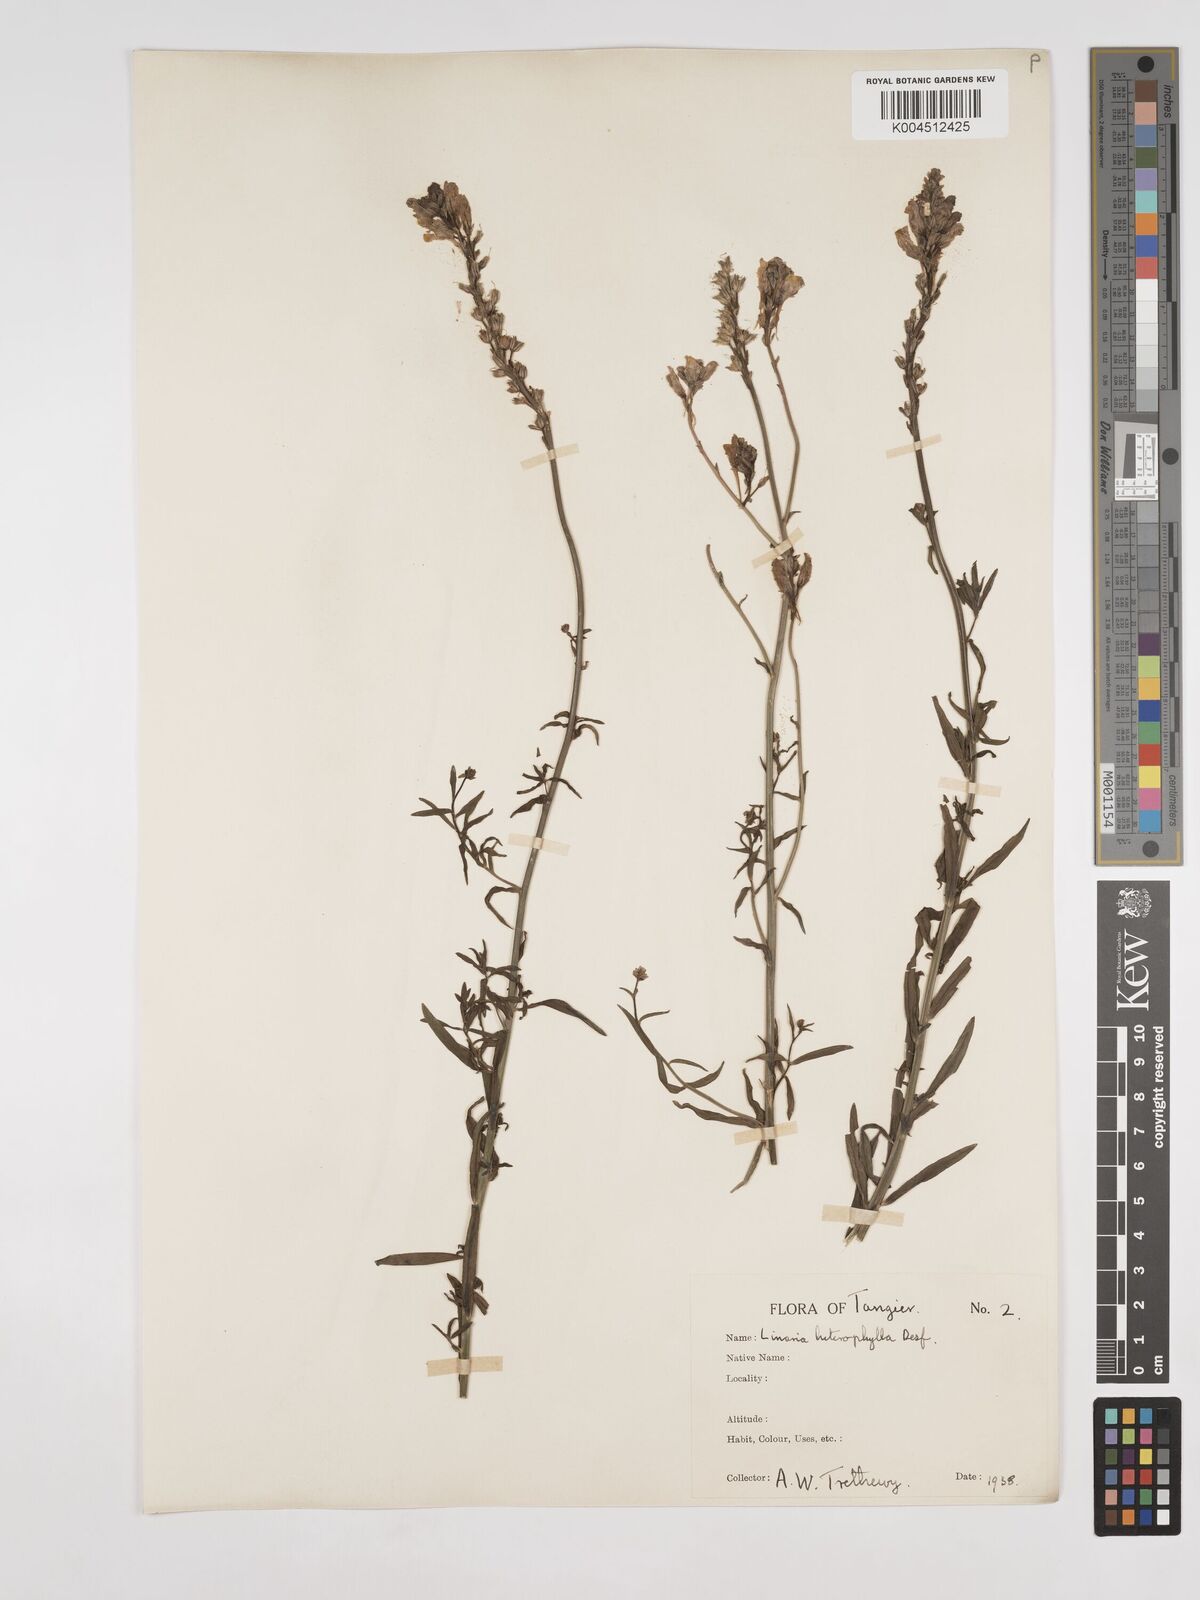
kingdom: Plantae
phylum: Tracheophyta
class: Magnoliopsida
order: Lamiales
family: Plantaginaceae
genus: Linaria
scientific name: Linaria multicaulis
